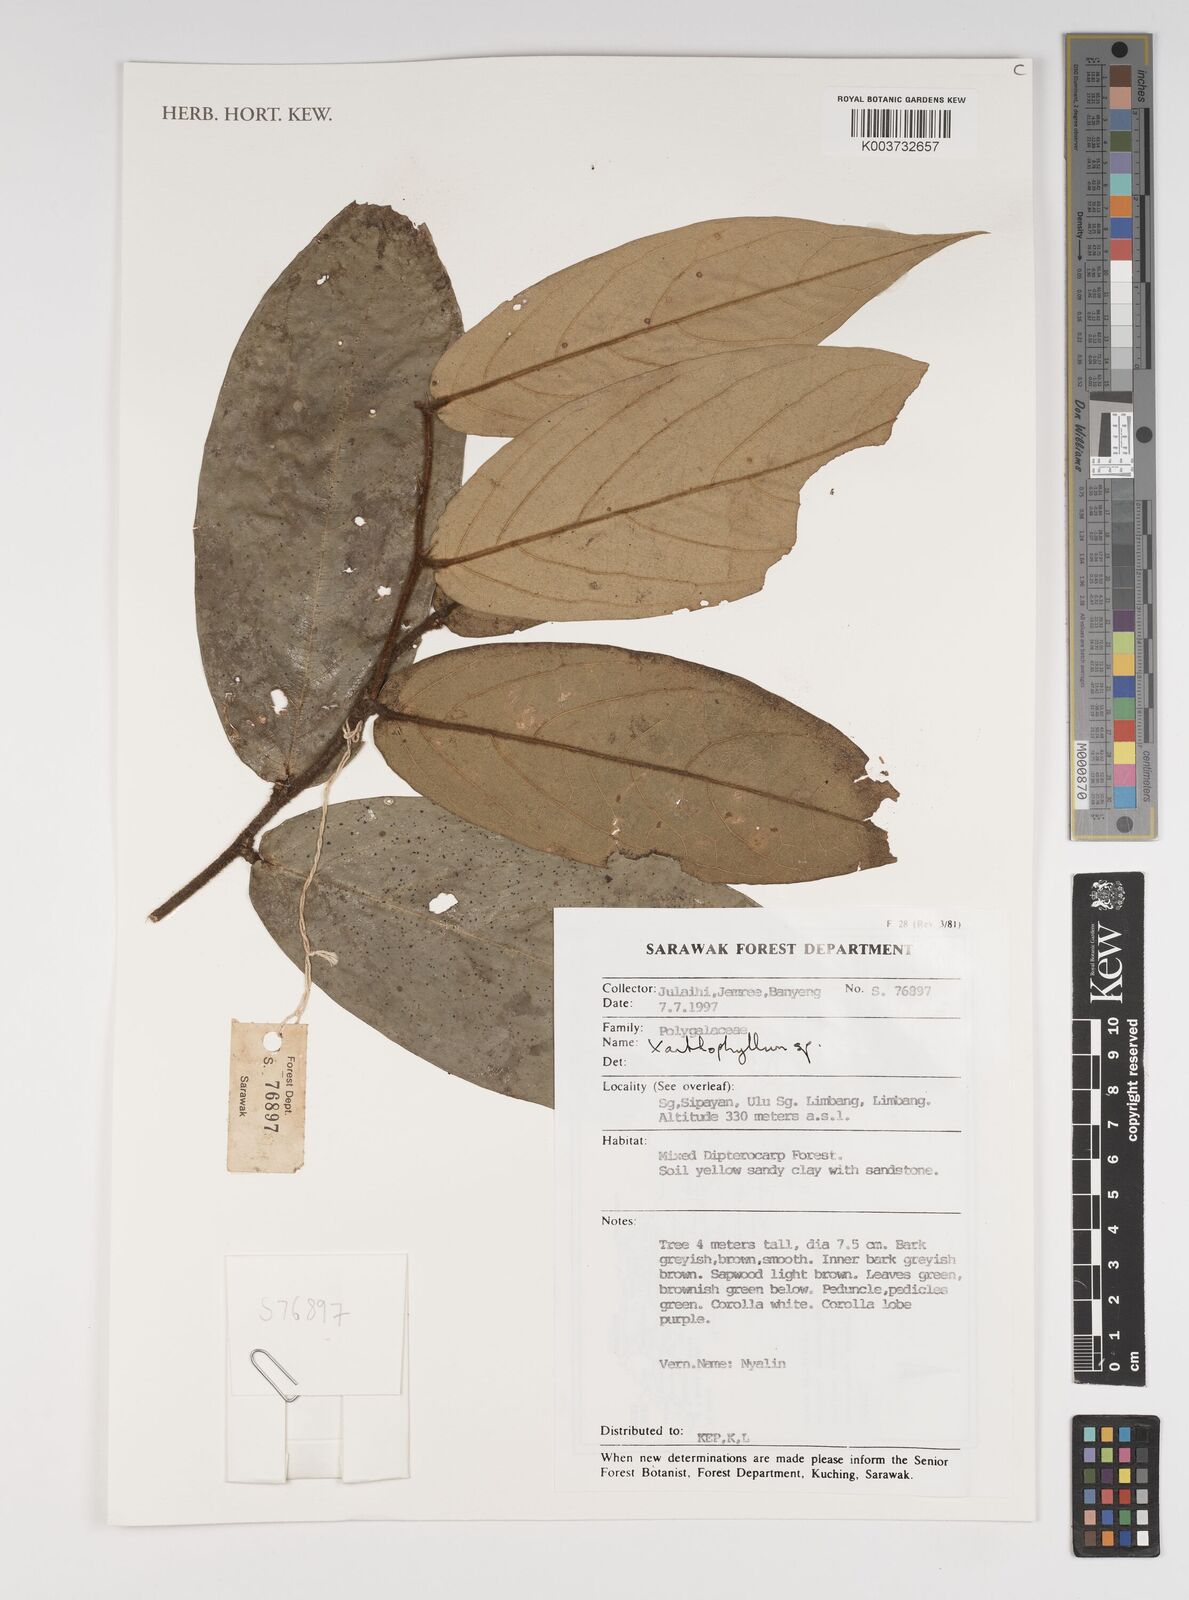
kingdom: Plantae
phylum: Tracheophyta
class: Magnoliopsida
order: Fabales
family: Polygalaceae
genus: Xanthophyllum
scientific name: Xanthophyllum
